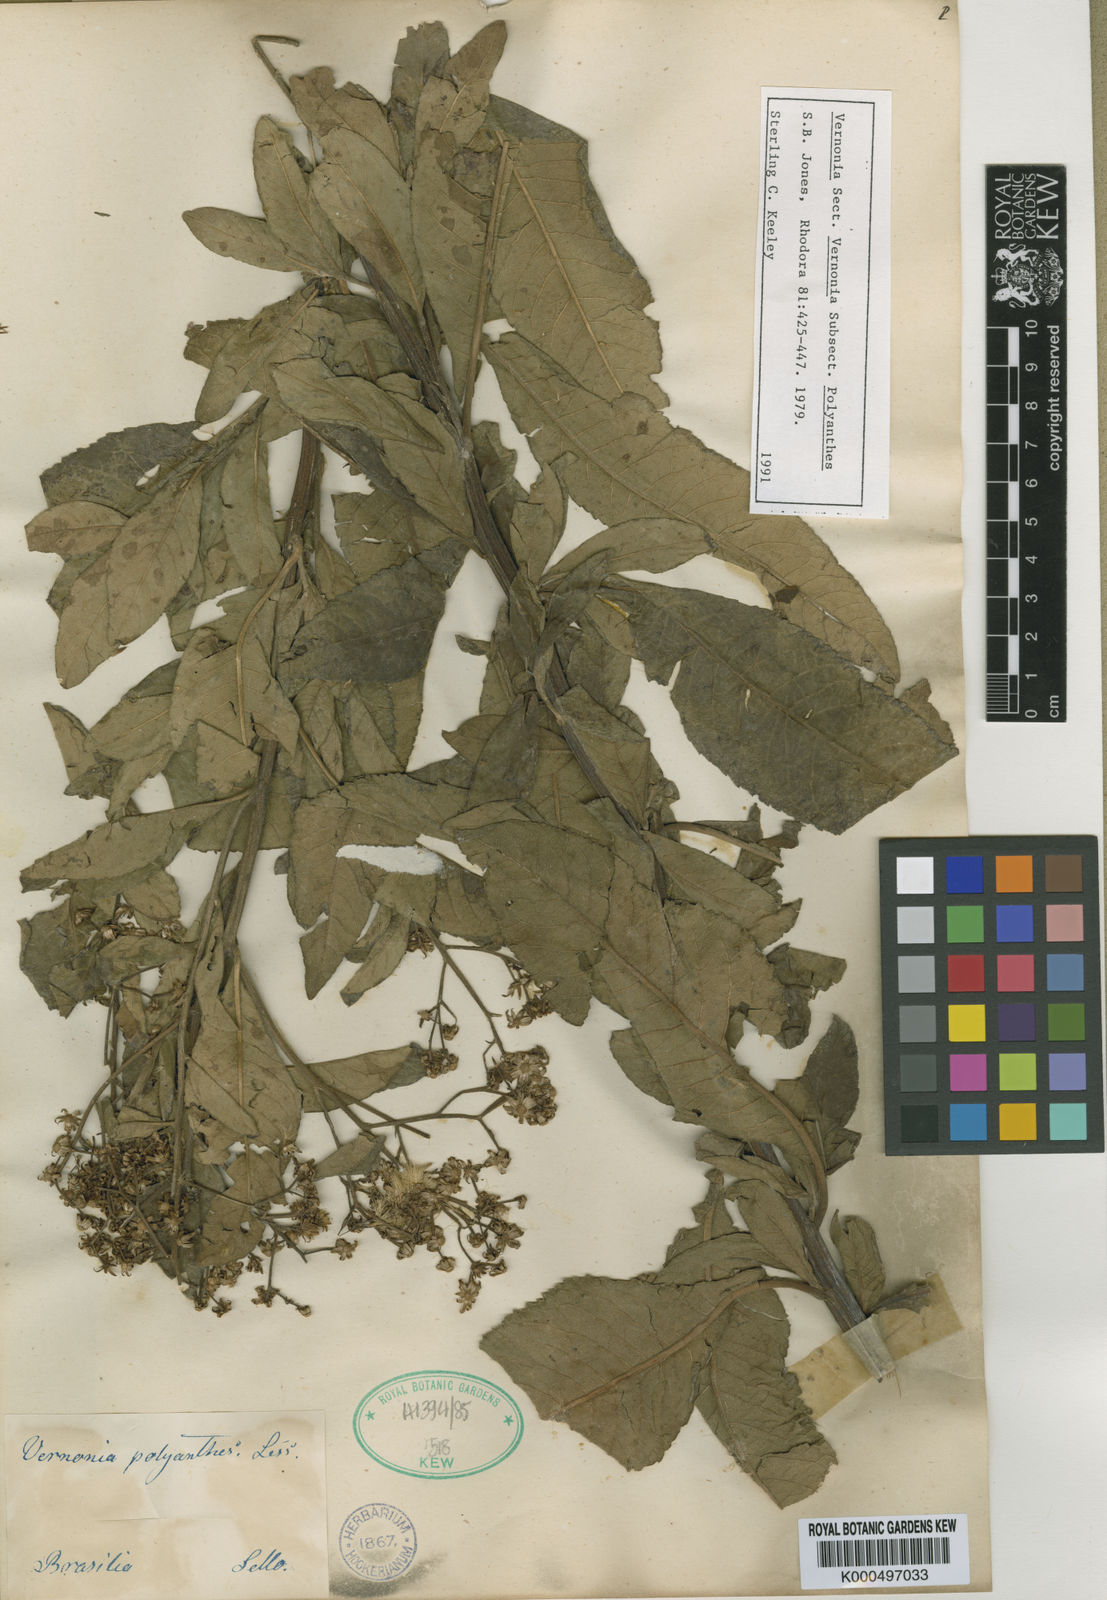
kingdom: Plantae
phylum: Tracheophyta
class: Magnoliopsida
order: Asterales
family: Asteraceae
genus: Vernonanthura
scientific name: Vernonanthura polyanthes
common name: Tree aster
